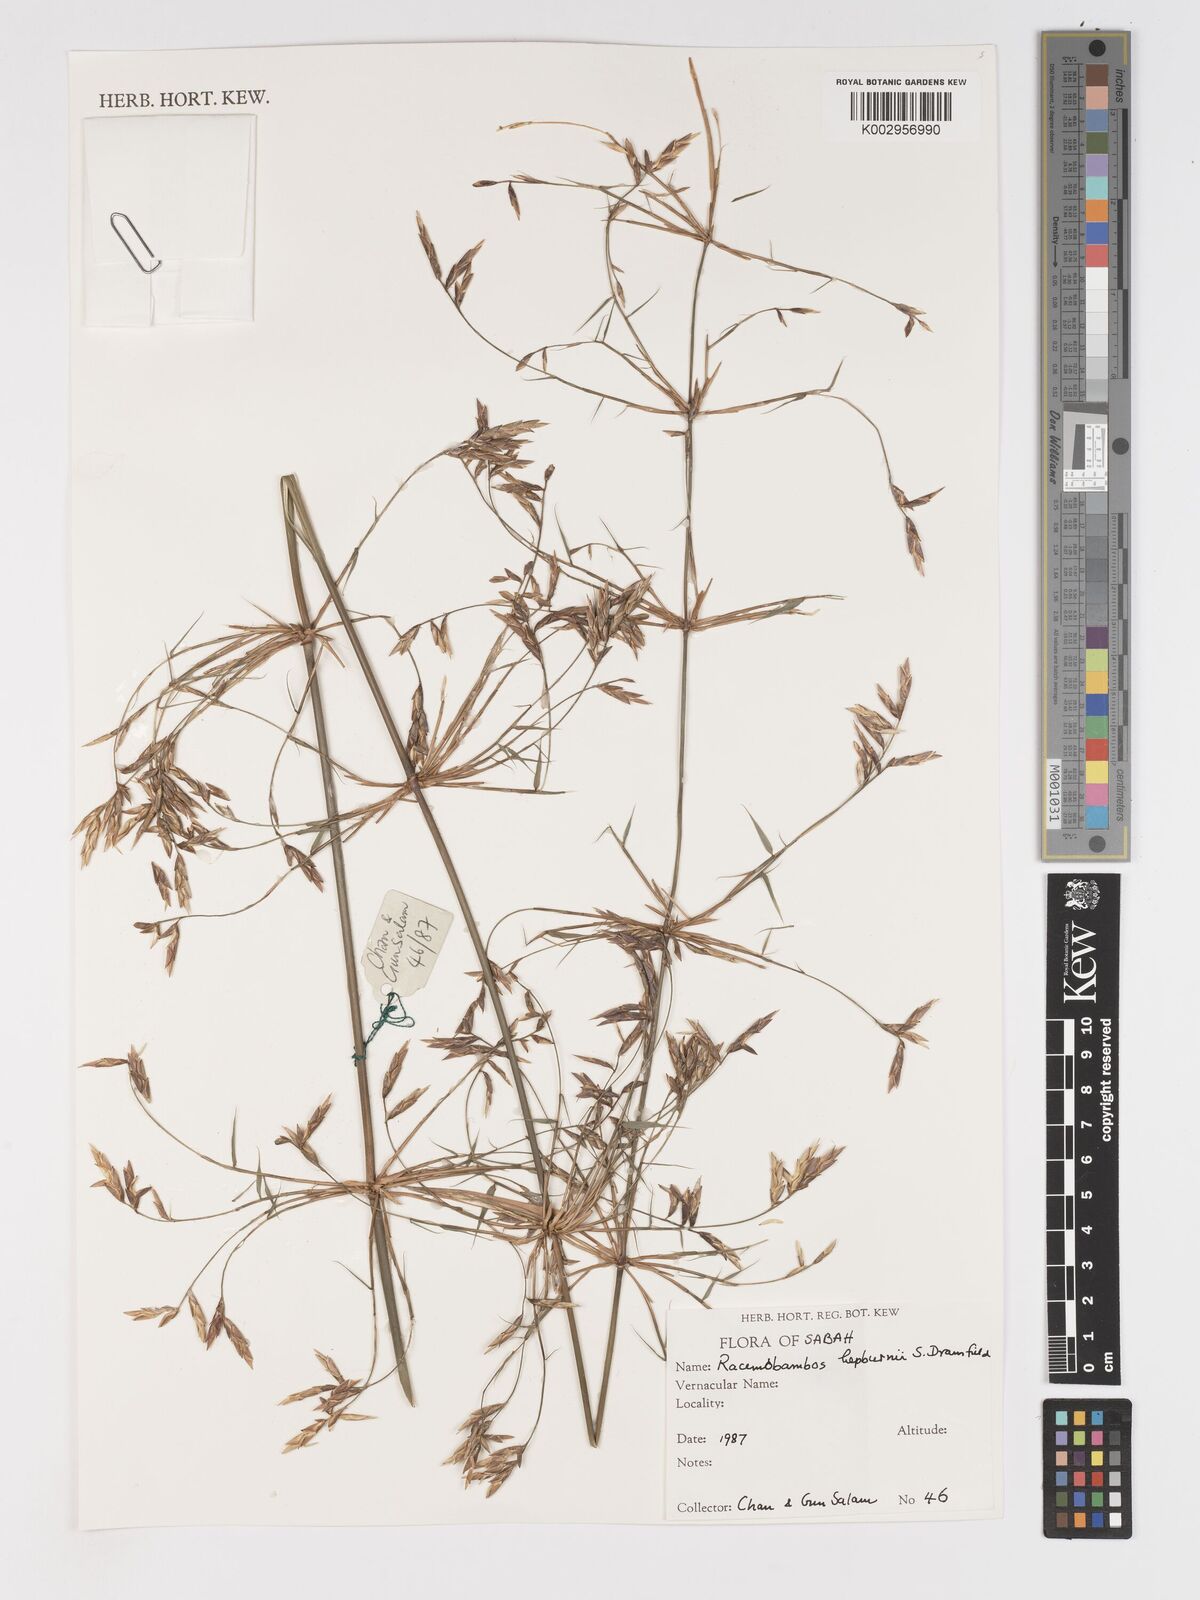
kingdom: Plantae
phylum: Tracheophyta
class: Liliopsida
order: Poales
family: Poaceae
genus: Racemobambos
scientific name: Racemobambos
